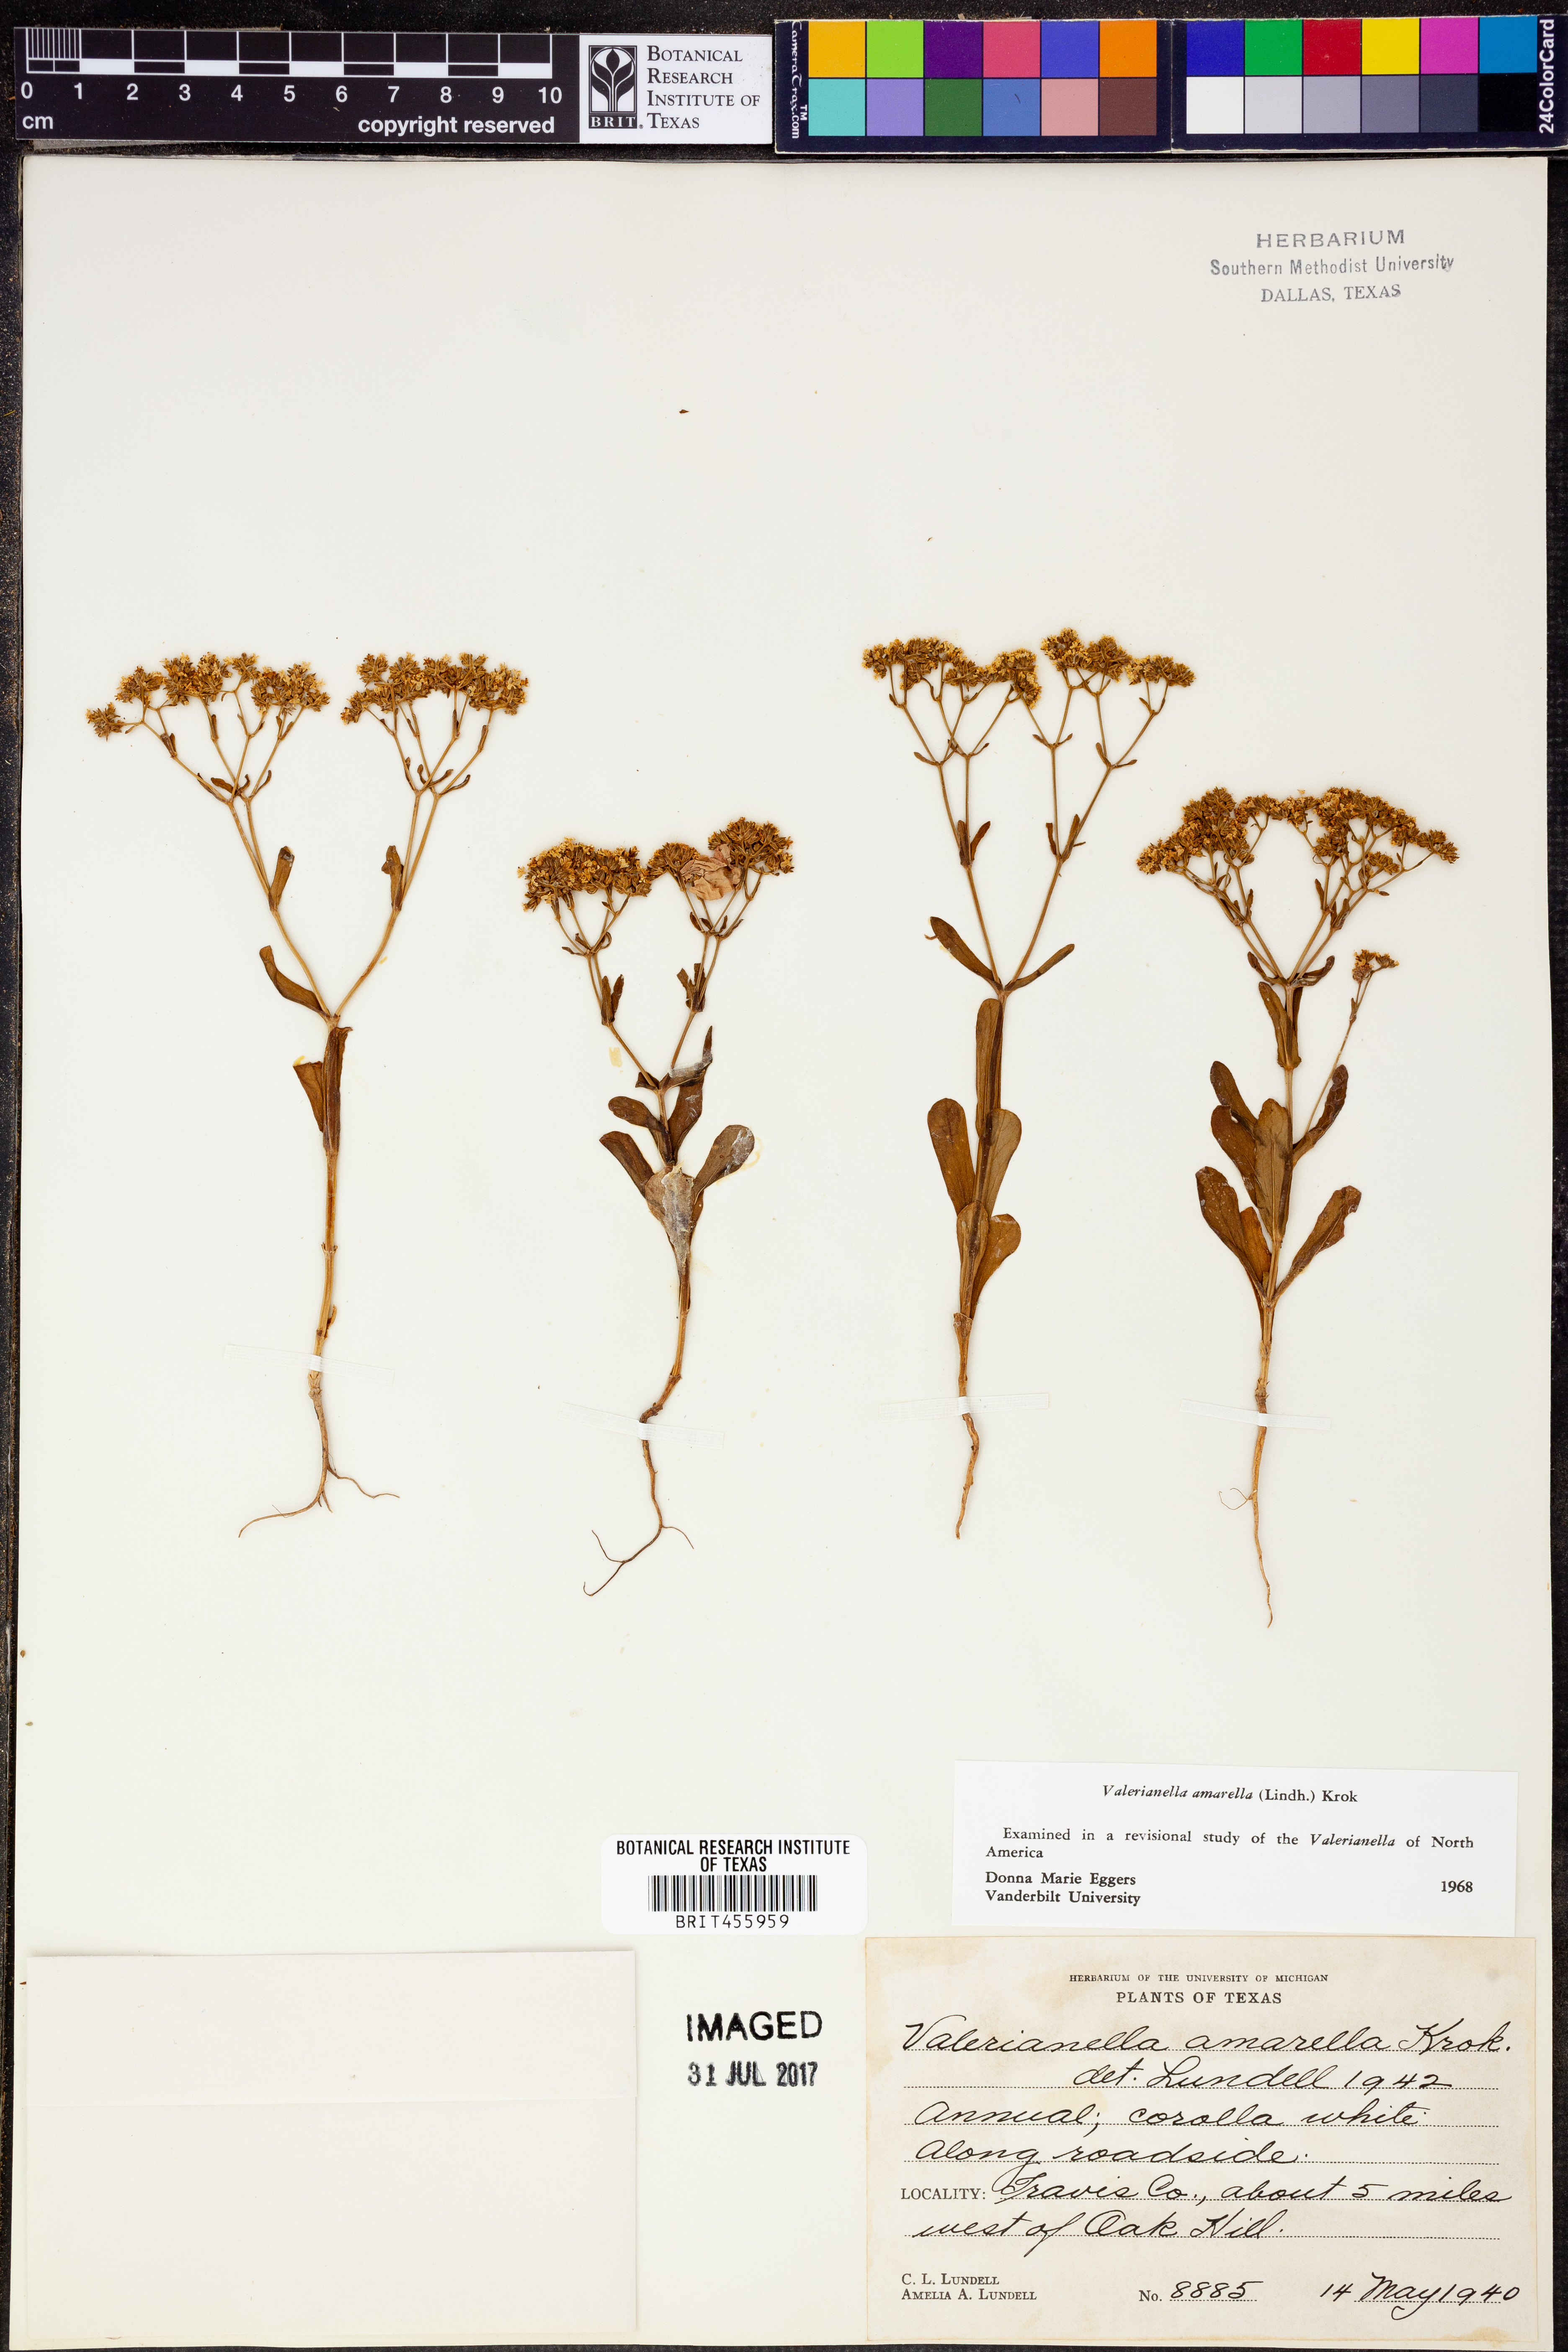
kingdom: Plantae
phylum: Tracheophyta
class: Magnoliopsida
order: Dipsacales
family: Caprifoliaceae
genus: Valerianella
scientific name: Valerianella amarella
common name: Hariy cornsalad
